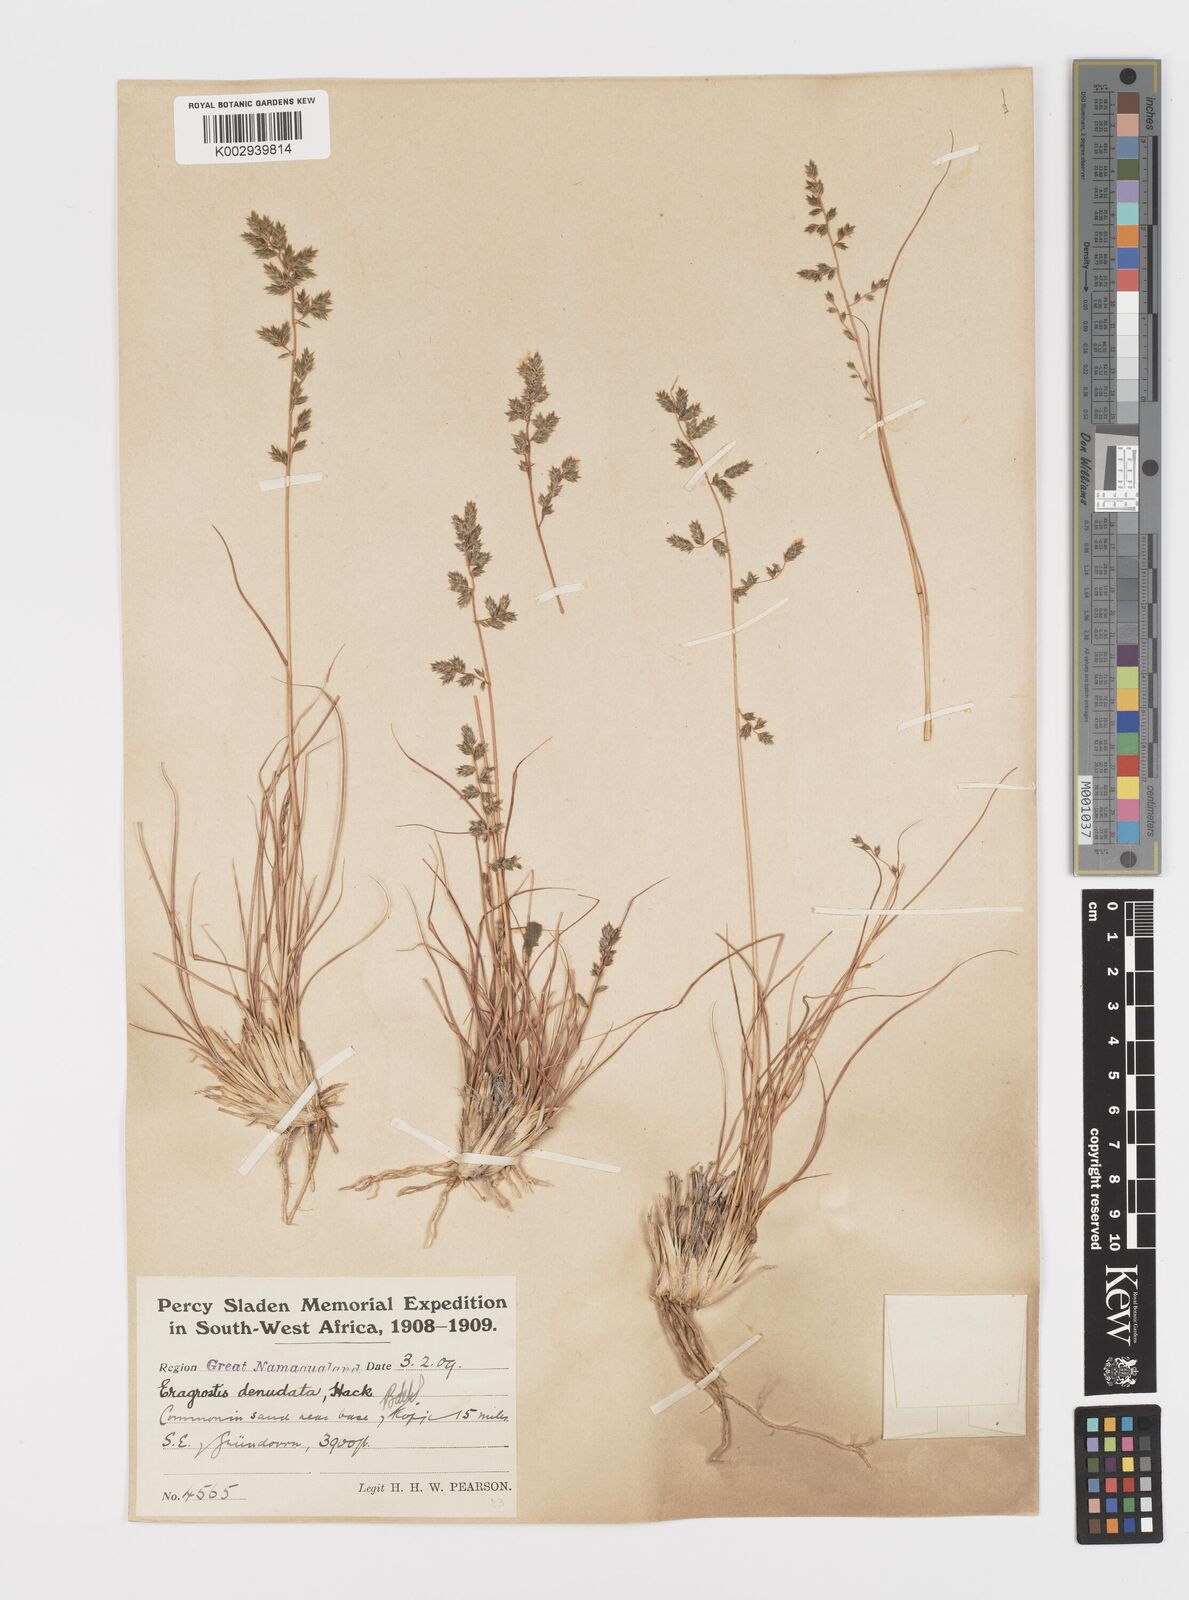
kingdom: Plantae
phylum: Tracheophyta
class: Liliopsida
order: Poales
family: Poaceae
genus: Eragrostis
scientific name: Eragrostis nindensis
